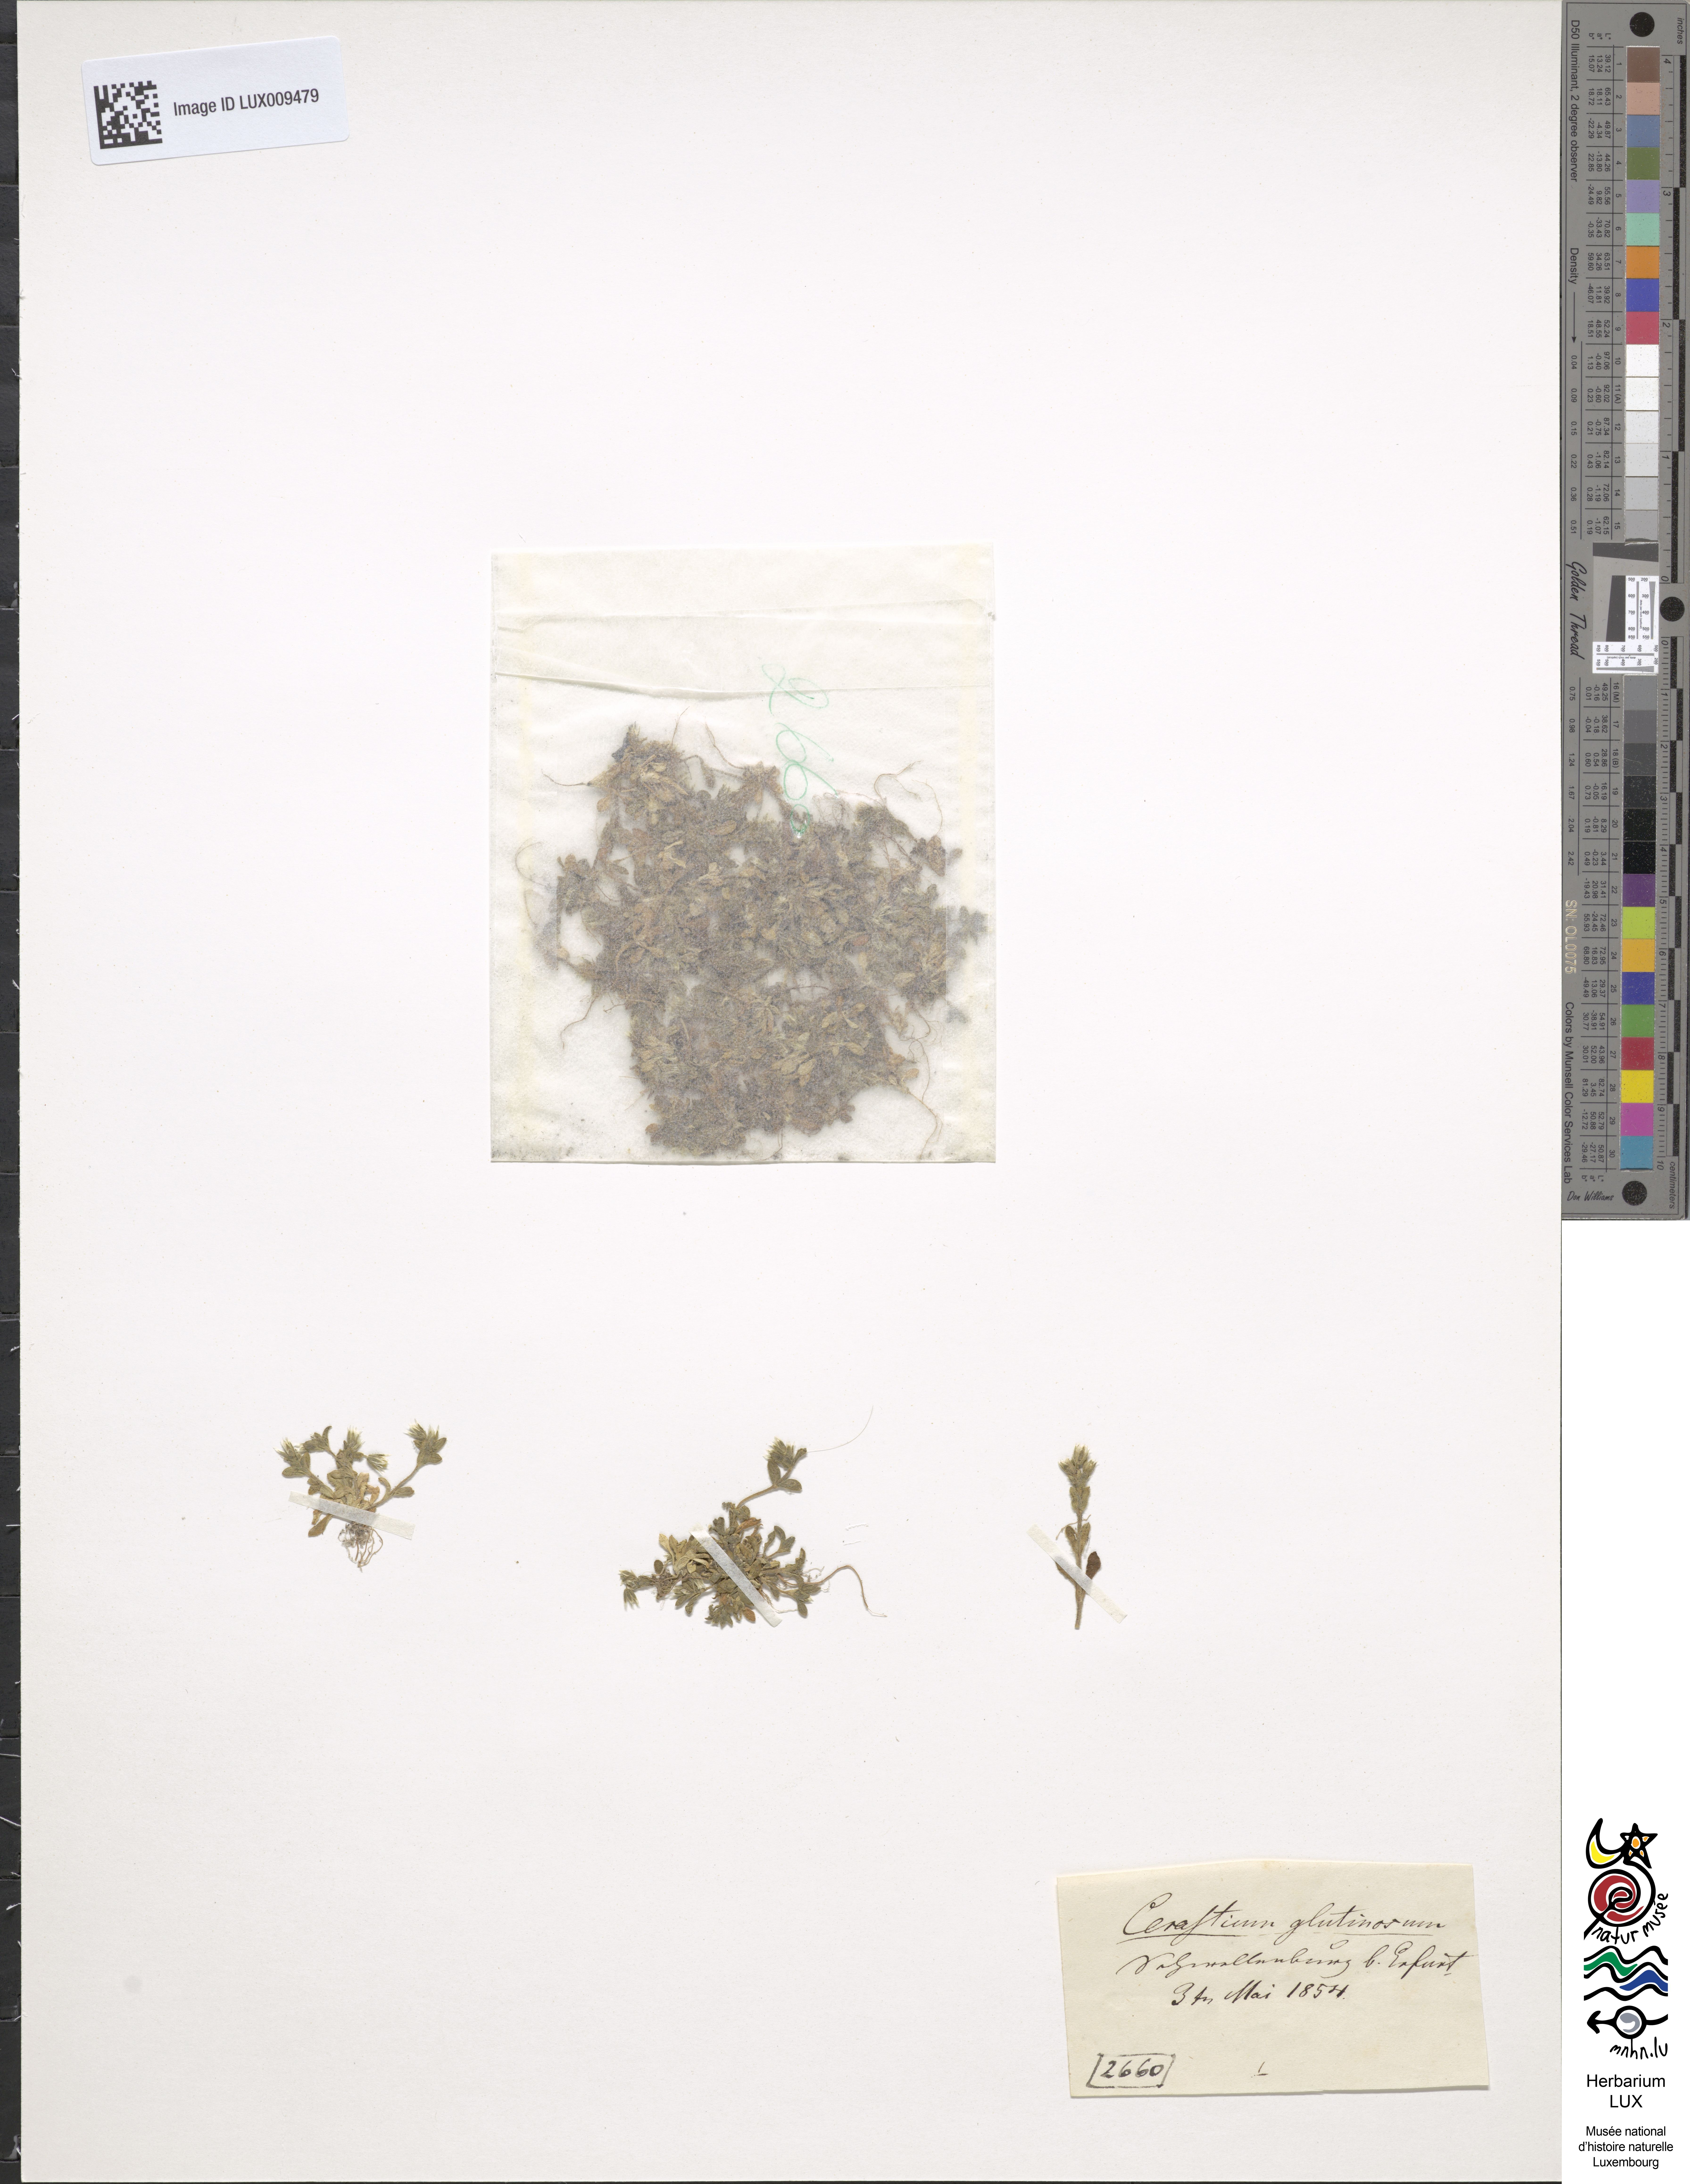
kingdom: Plantae
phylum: Tracheophyta
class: Magnoliopsida
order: Caryophyllales
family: Caryophyllaceae
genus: Cerastium
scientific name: Cerastium pumilum
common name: Dwarf mouse-ear
